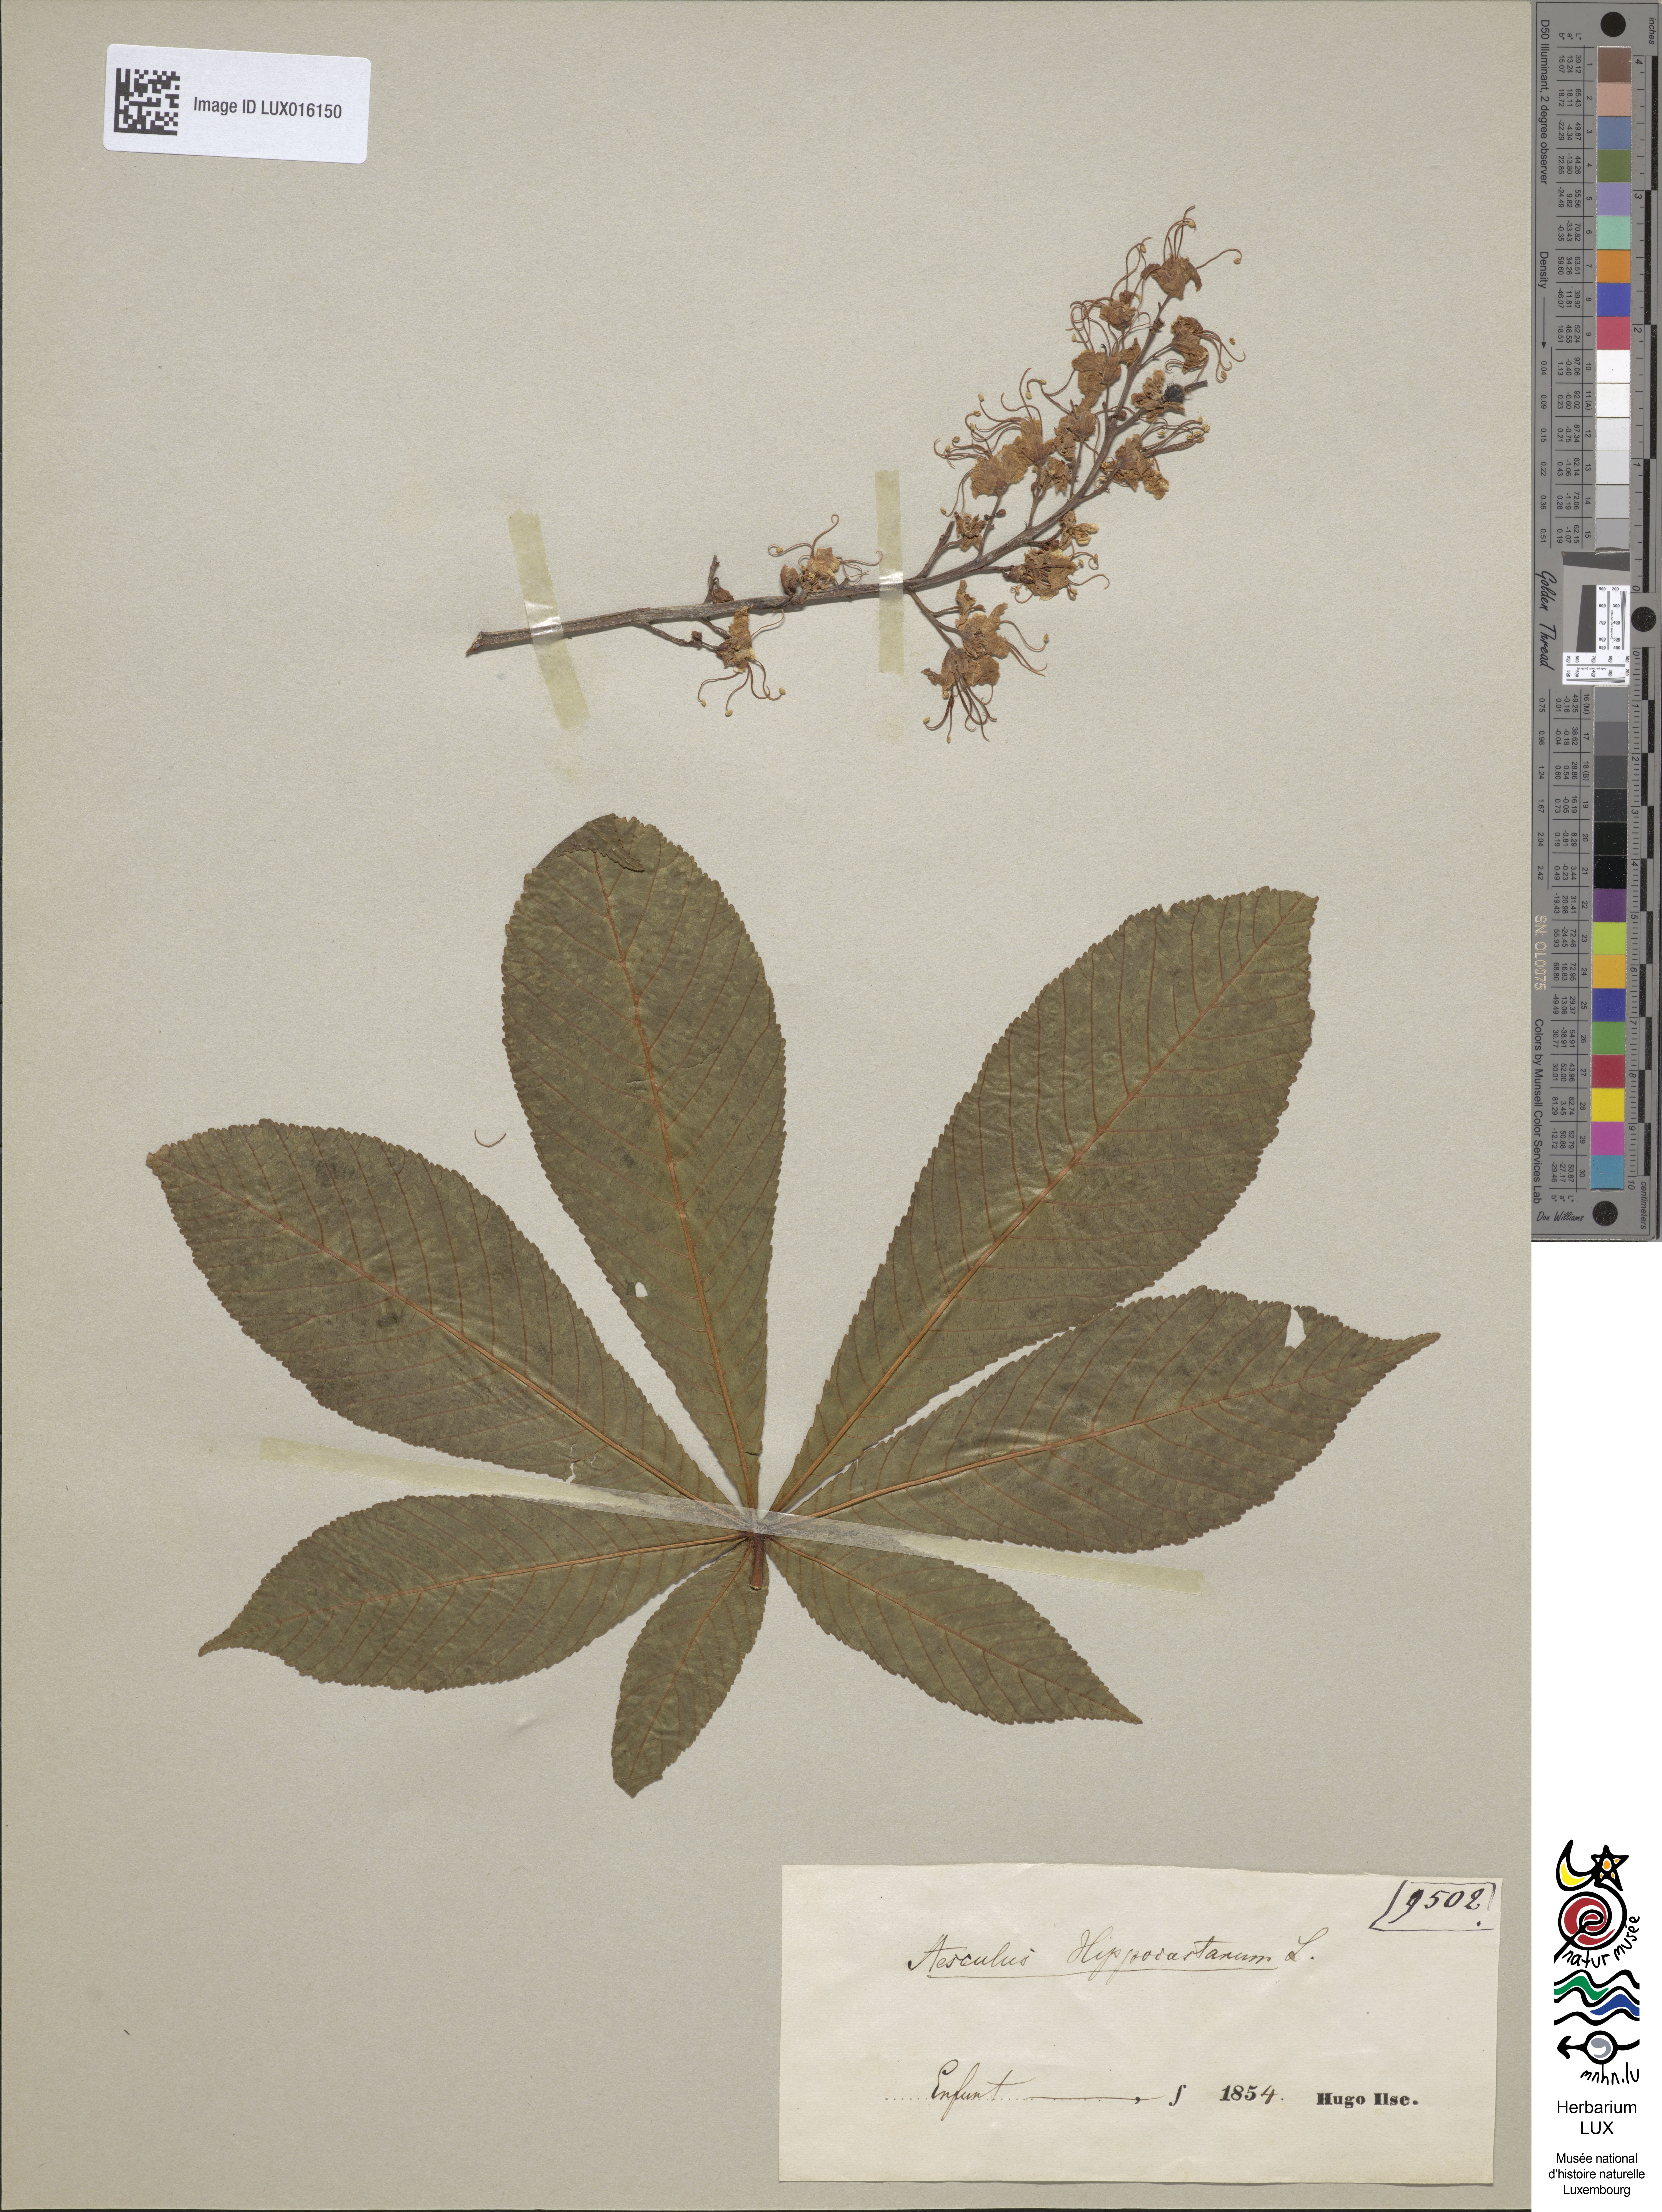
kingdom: Plantae
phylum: Tracheophyta
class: Magnoliopsida
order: Sapindales
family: Sapindaceae
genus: Aesculus
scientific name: Aesculus hippocastanum
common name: Horse-chestnut
